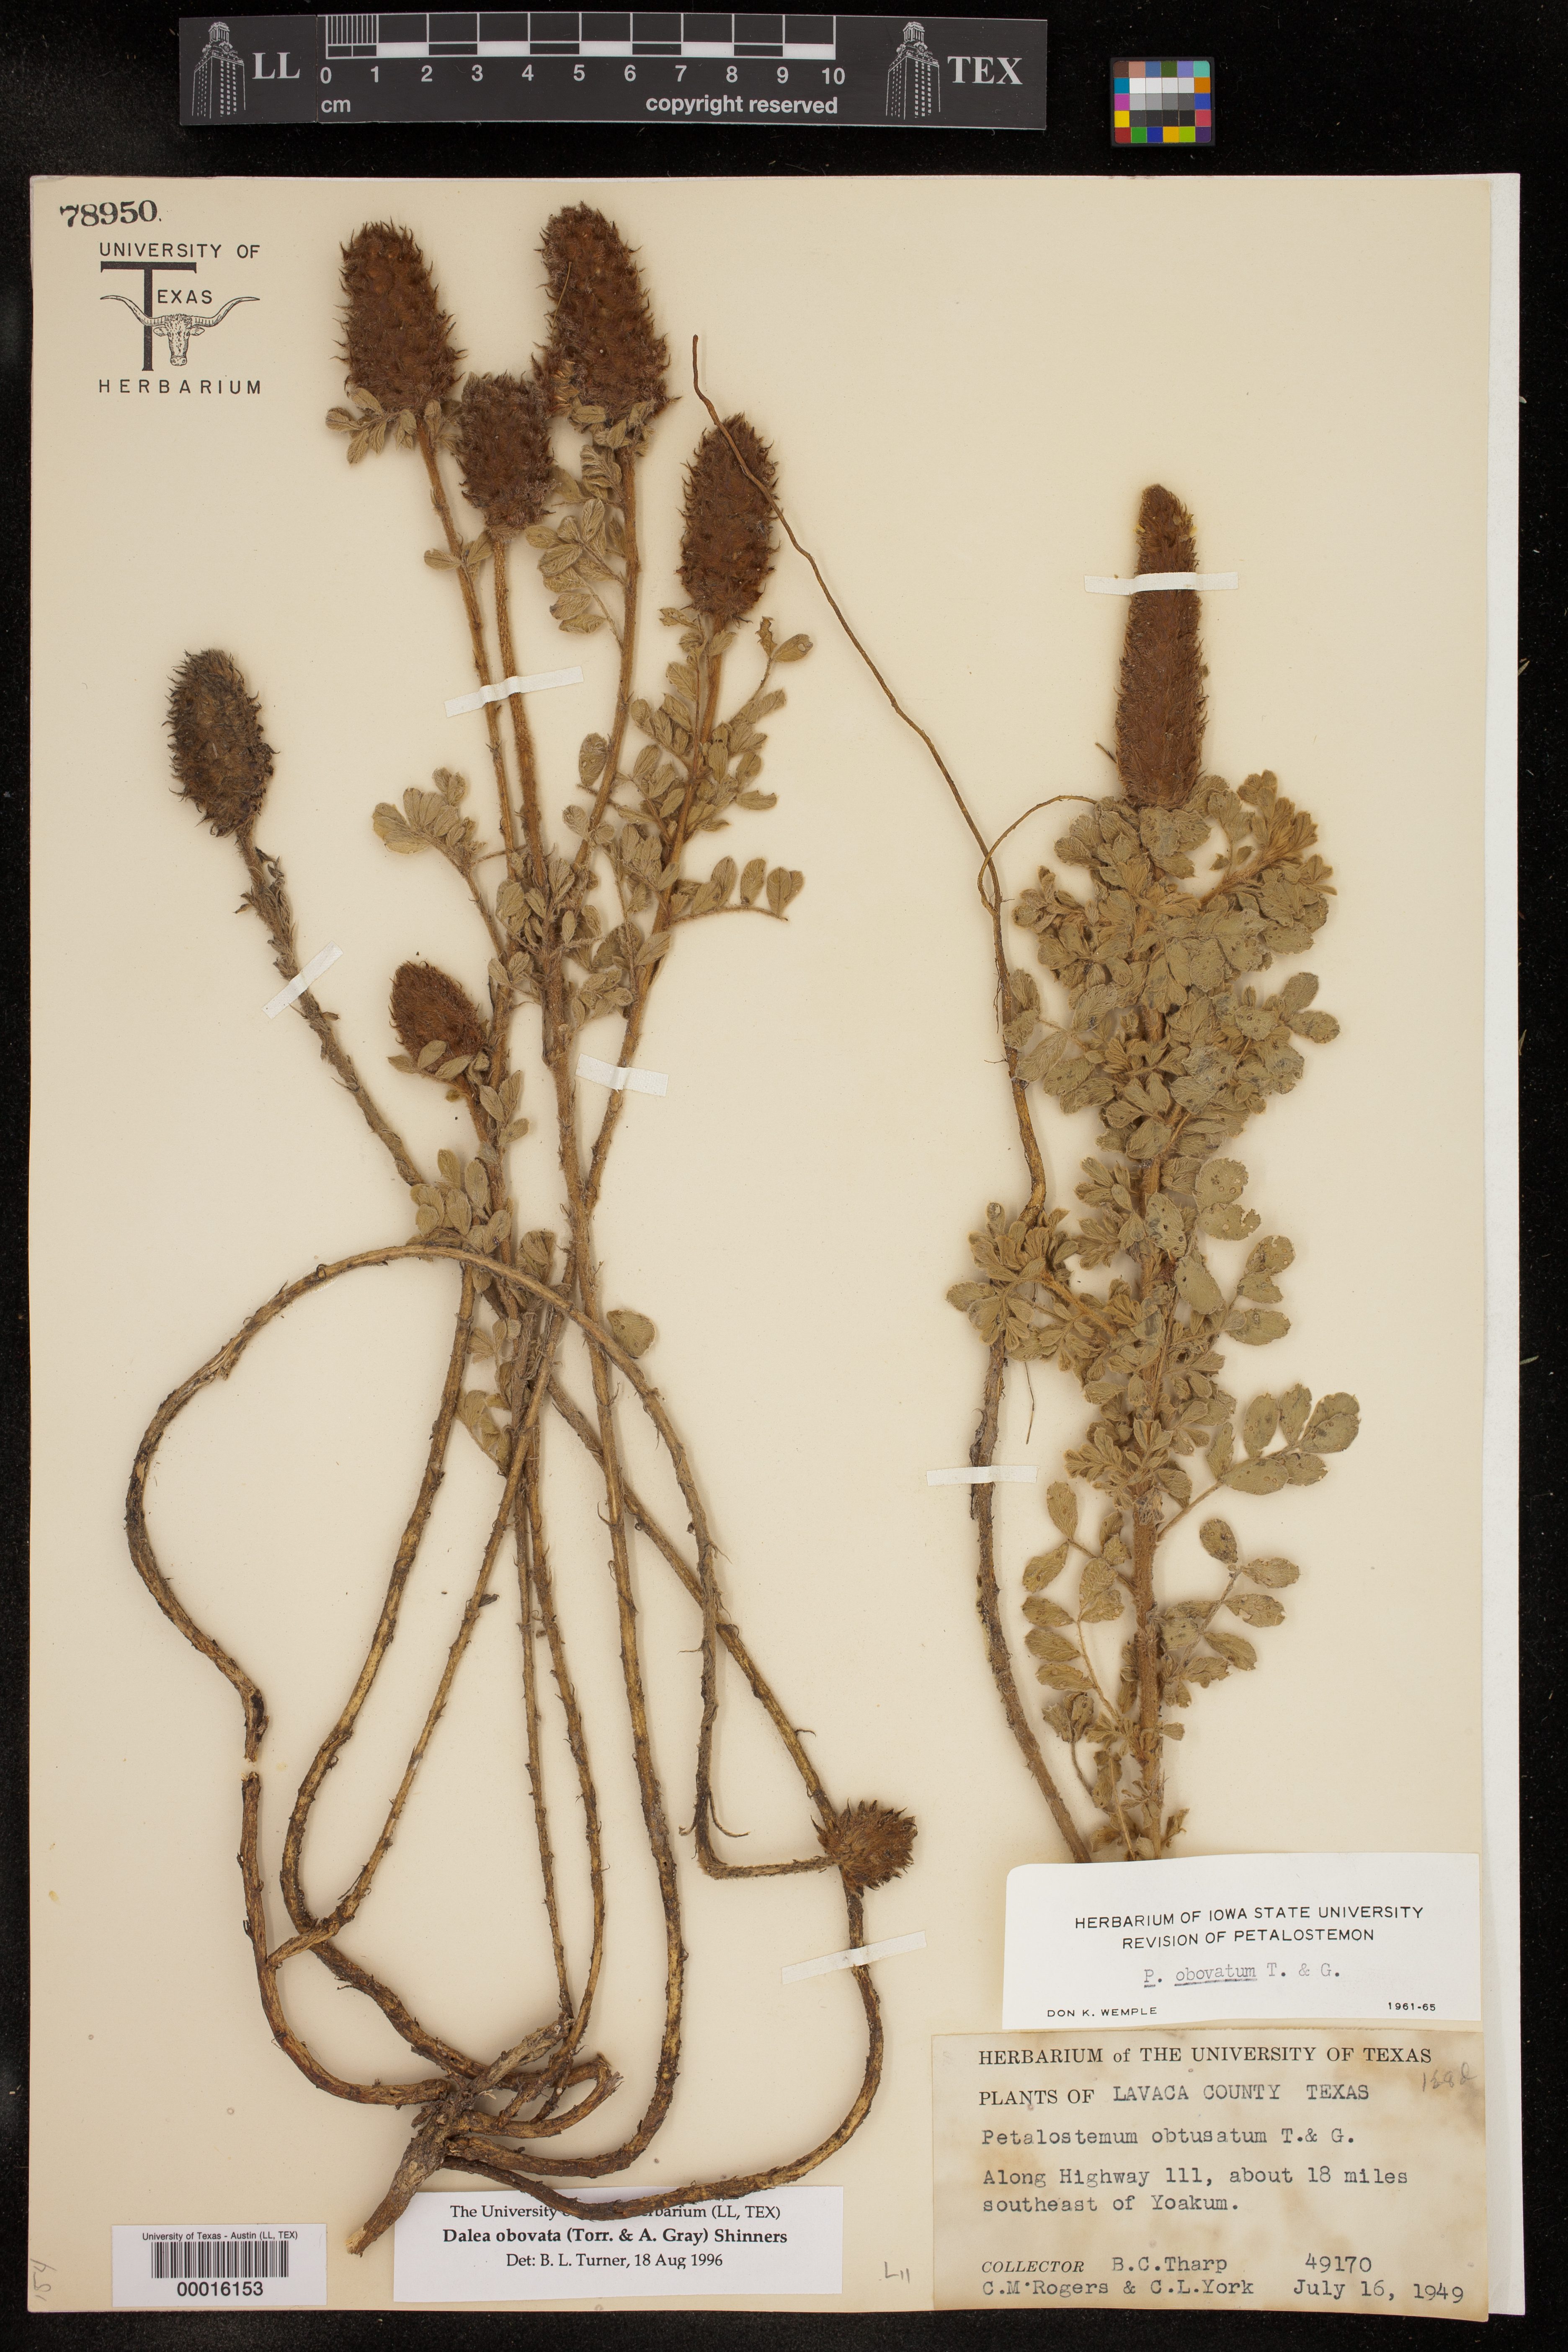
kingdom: Plantae
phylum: Tracheophyta
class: Magnoliopsida
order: Fabales
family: Fabaceae
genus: Dalea
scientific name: Dalea obovata
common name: Pussyfoot
